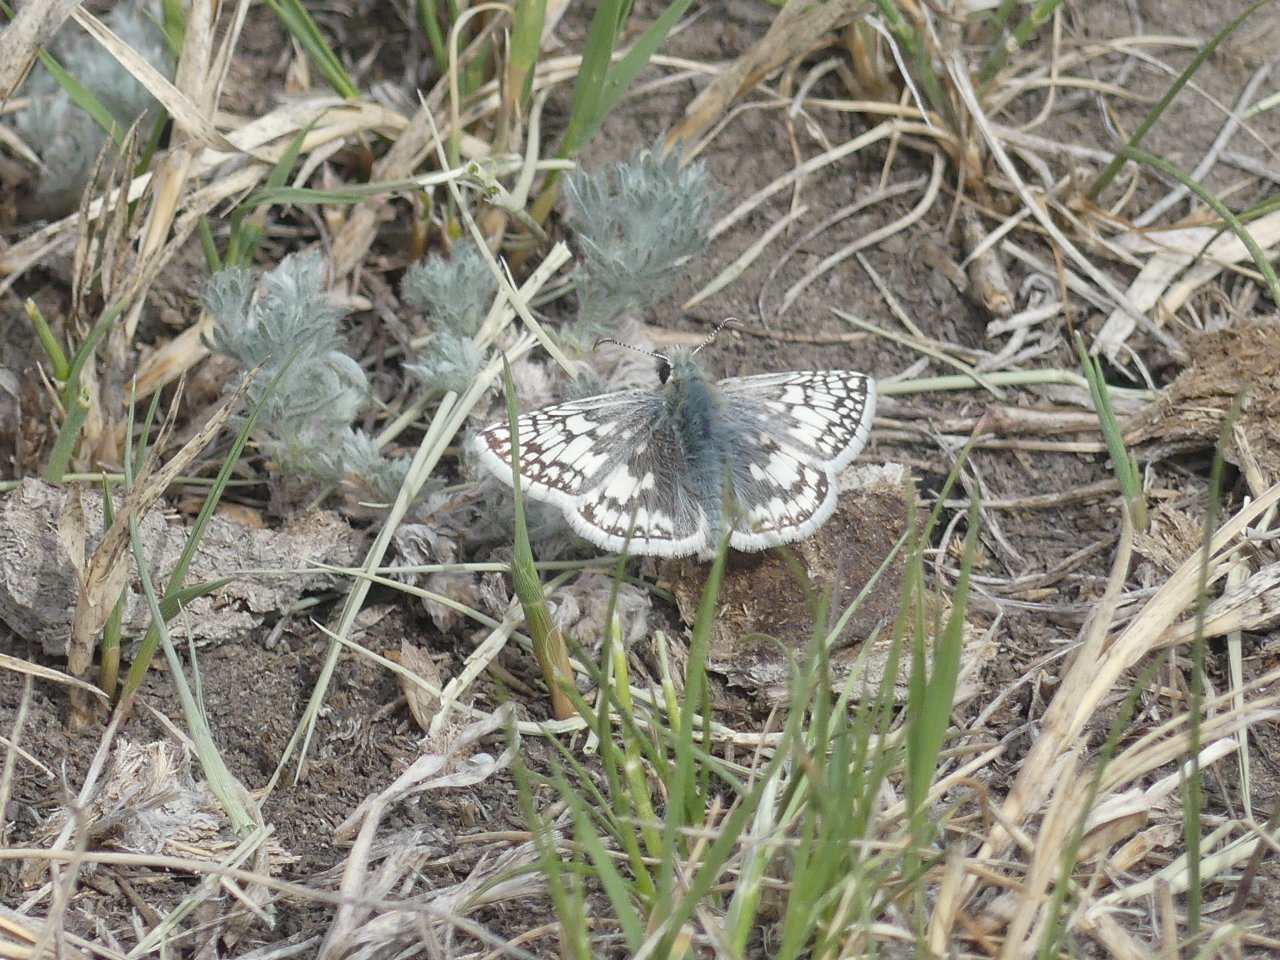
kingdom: Animalia
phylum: Arthropoda
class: Insecta
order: Lepidoptera
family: Hesperiidae
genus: Pyrgus
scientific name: Pyrgus communis
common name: Common Checkered-Skipper
